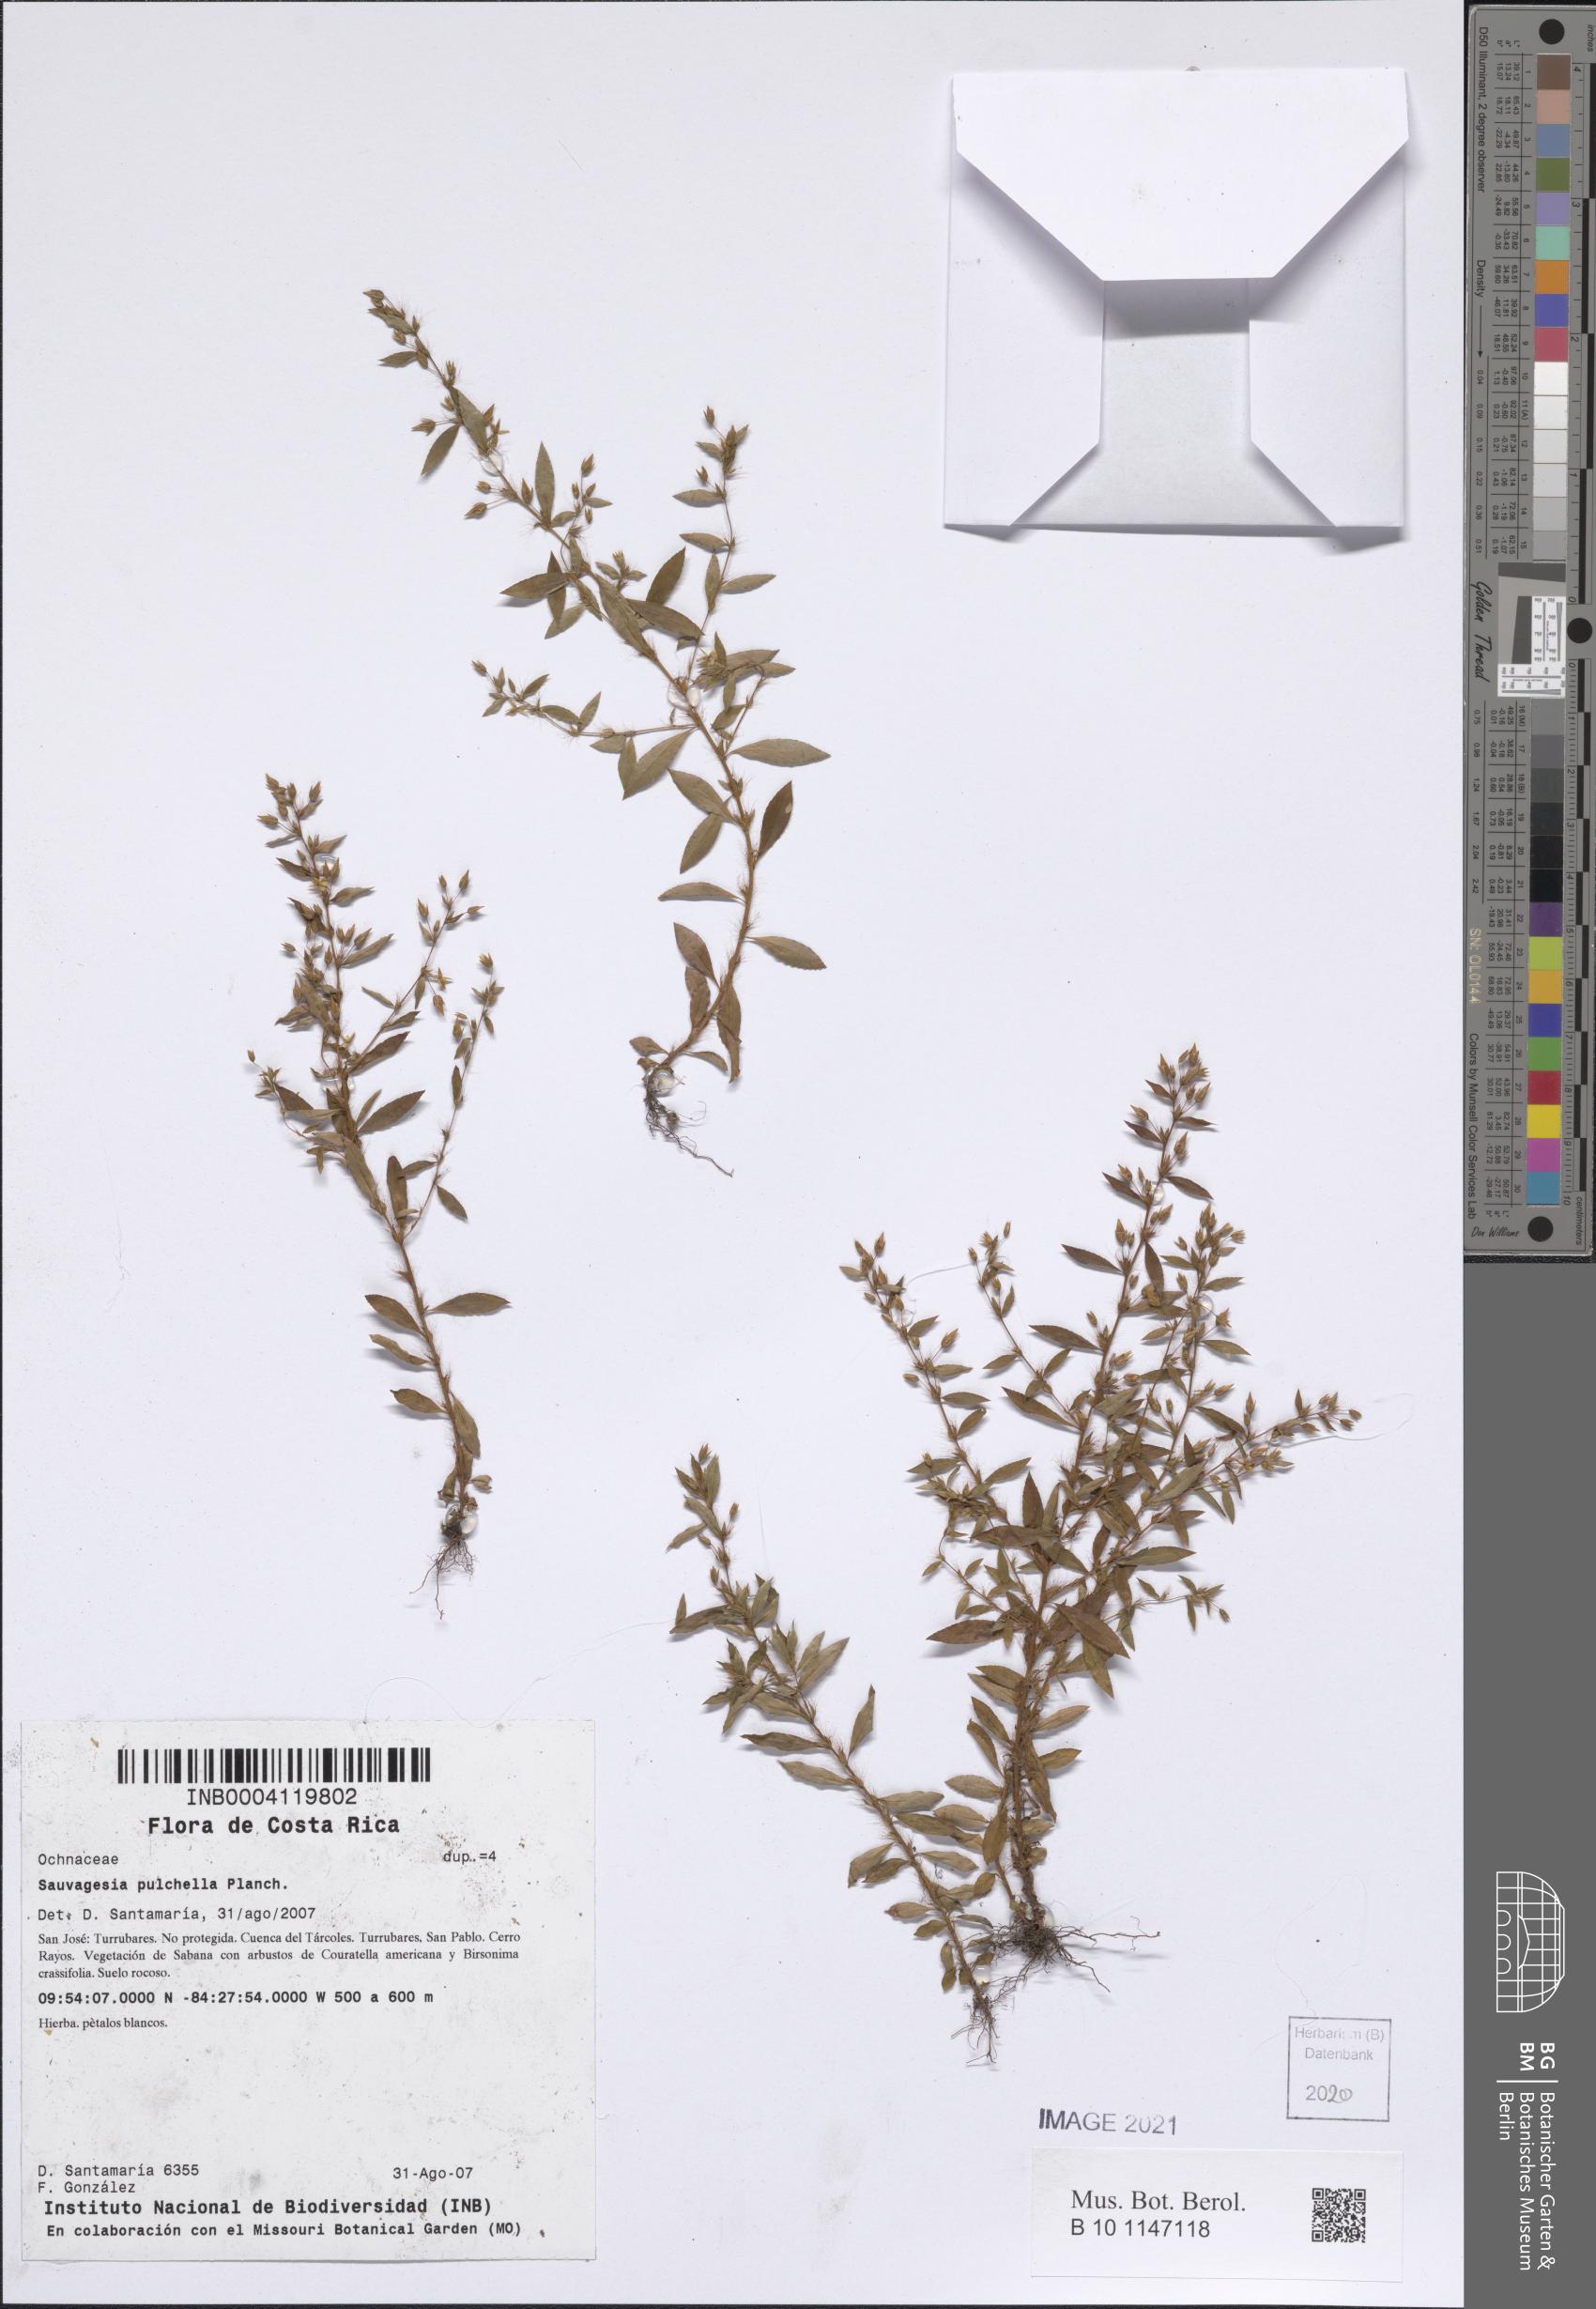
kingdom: Plantae
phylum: Tracheophyta
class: Magnoliopsida
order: Malpighiales
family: Ochnaceae
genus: Sauvagesia
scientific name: Sauvagesia pulchella
